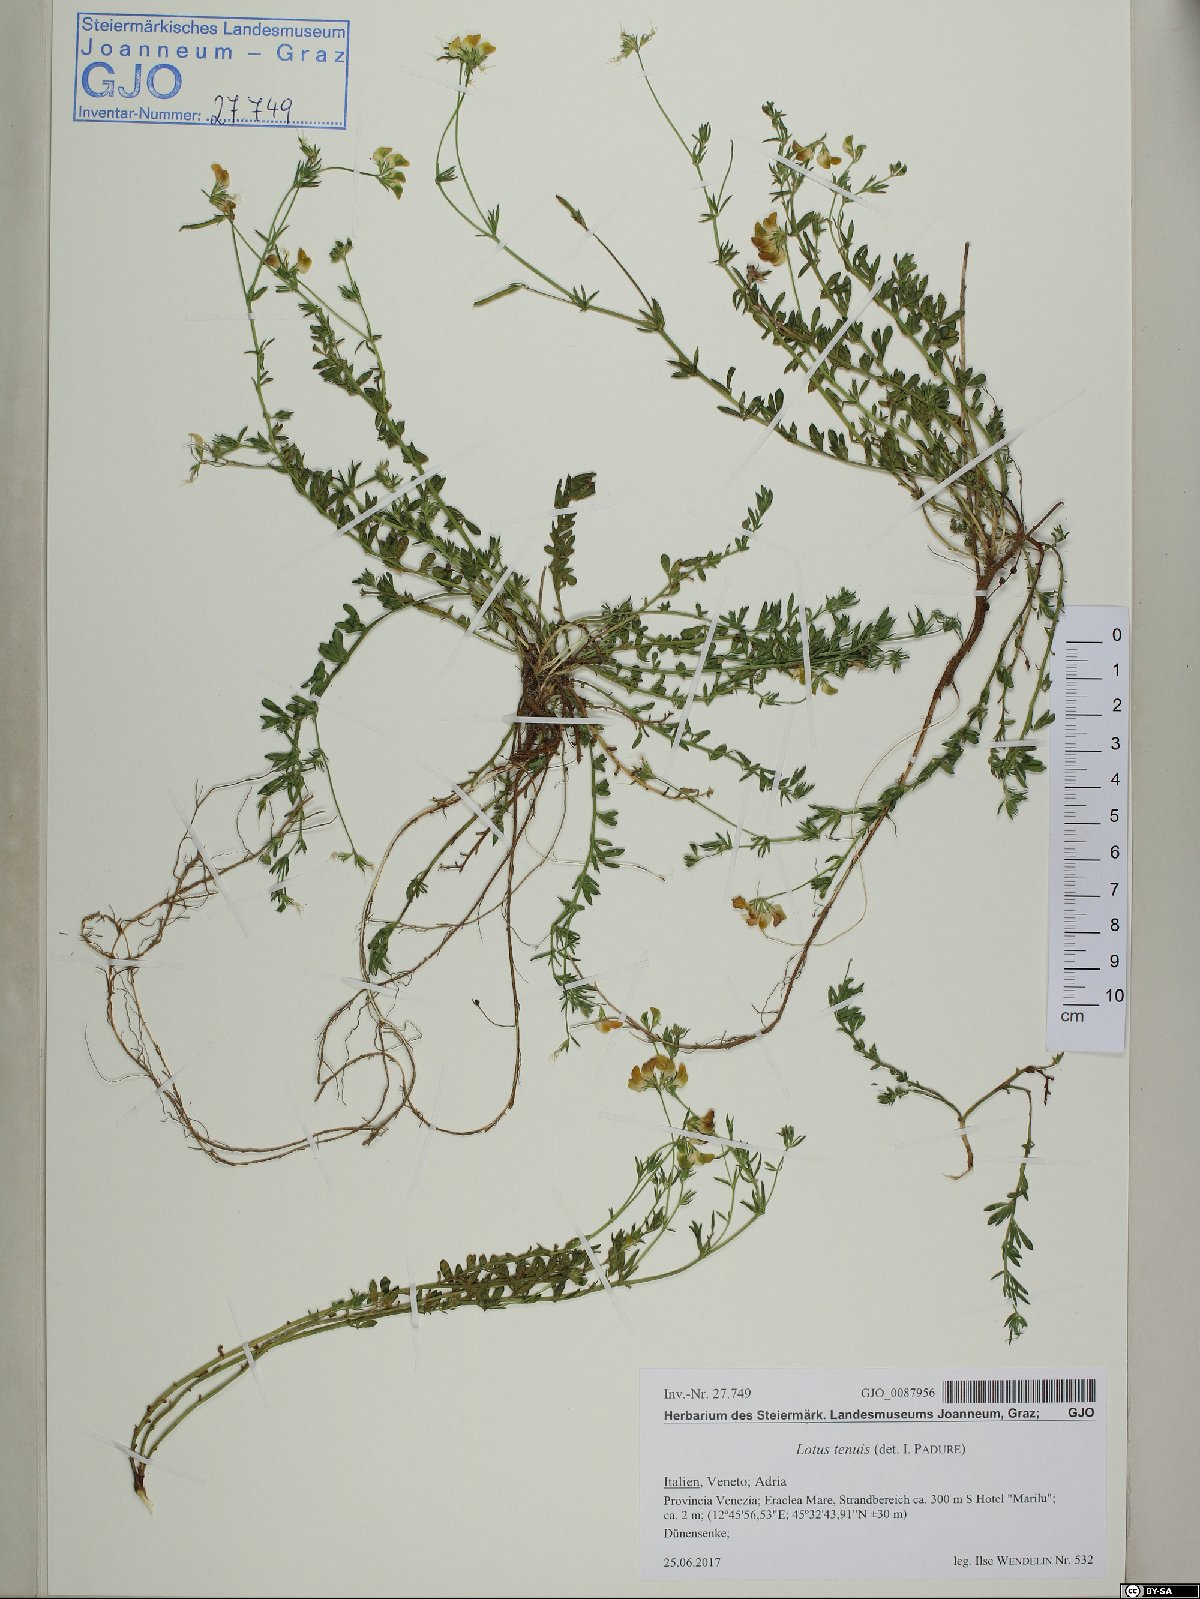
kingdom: Plantae
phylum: Tracheophyta
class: Magnoliopsida
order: Fabales
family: Fabaceae
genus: Lotus
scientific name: Lotus tenuis
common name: Narrow-leaved bird's-foot-trefoil
